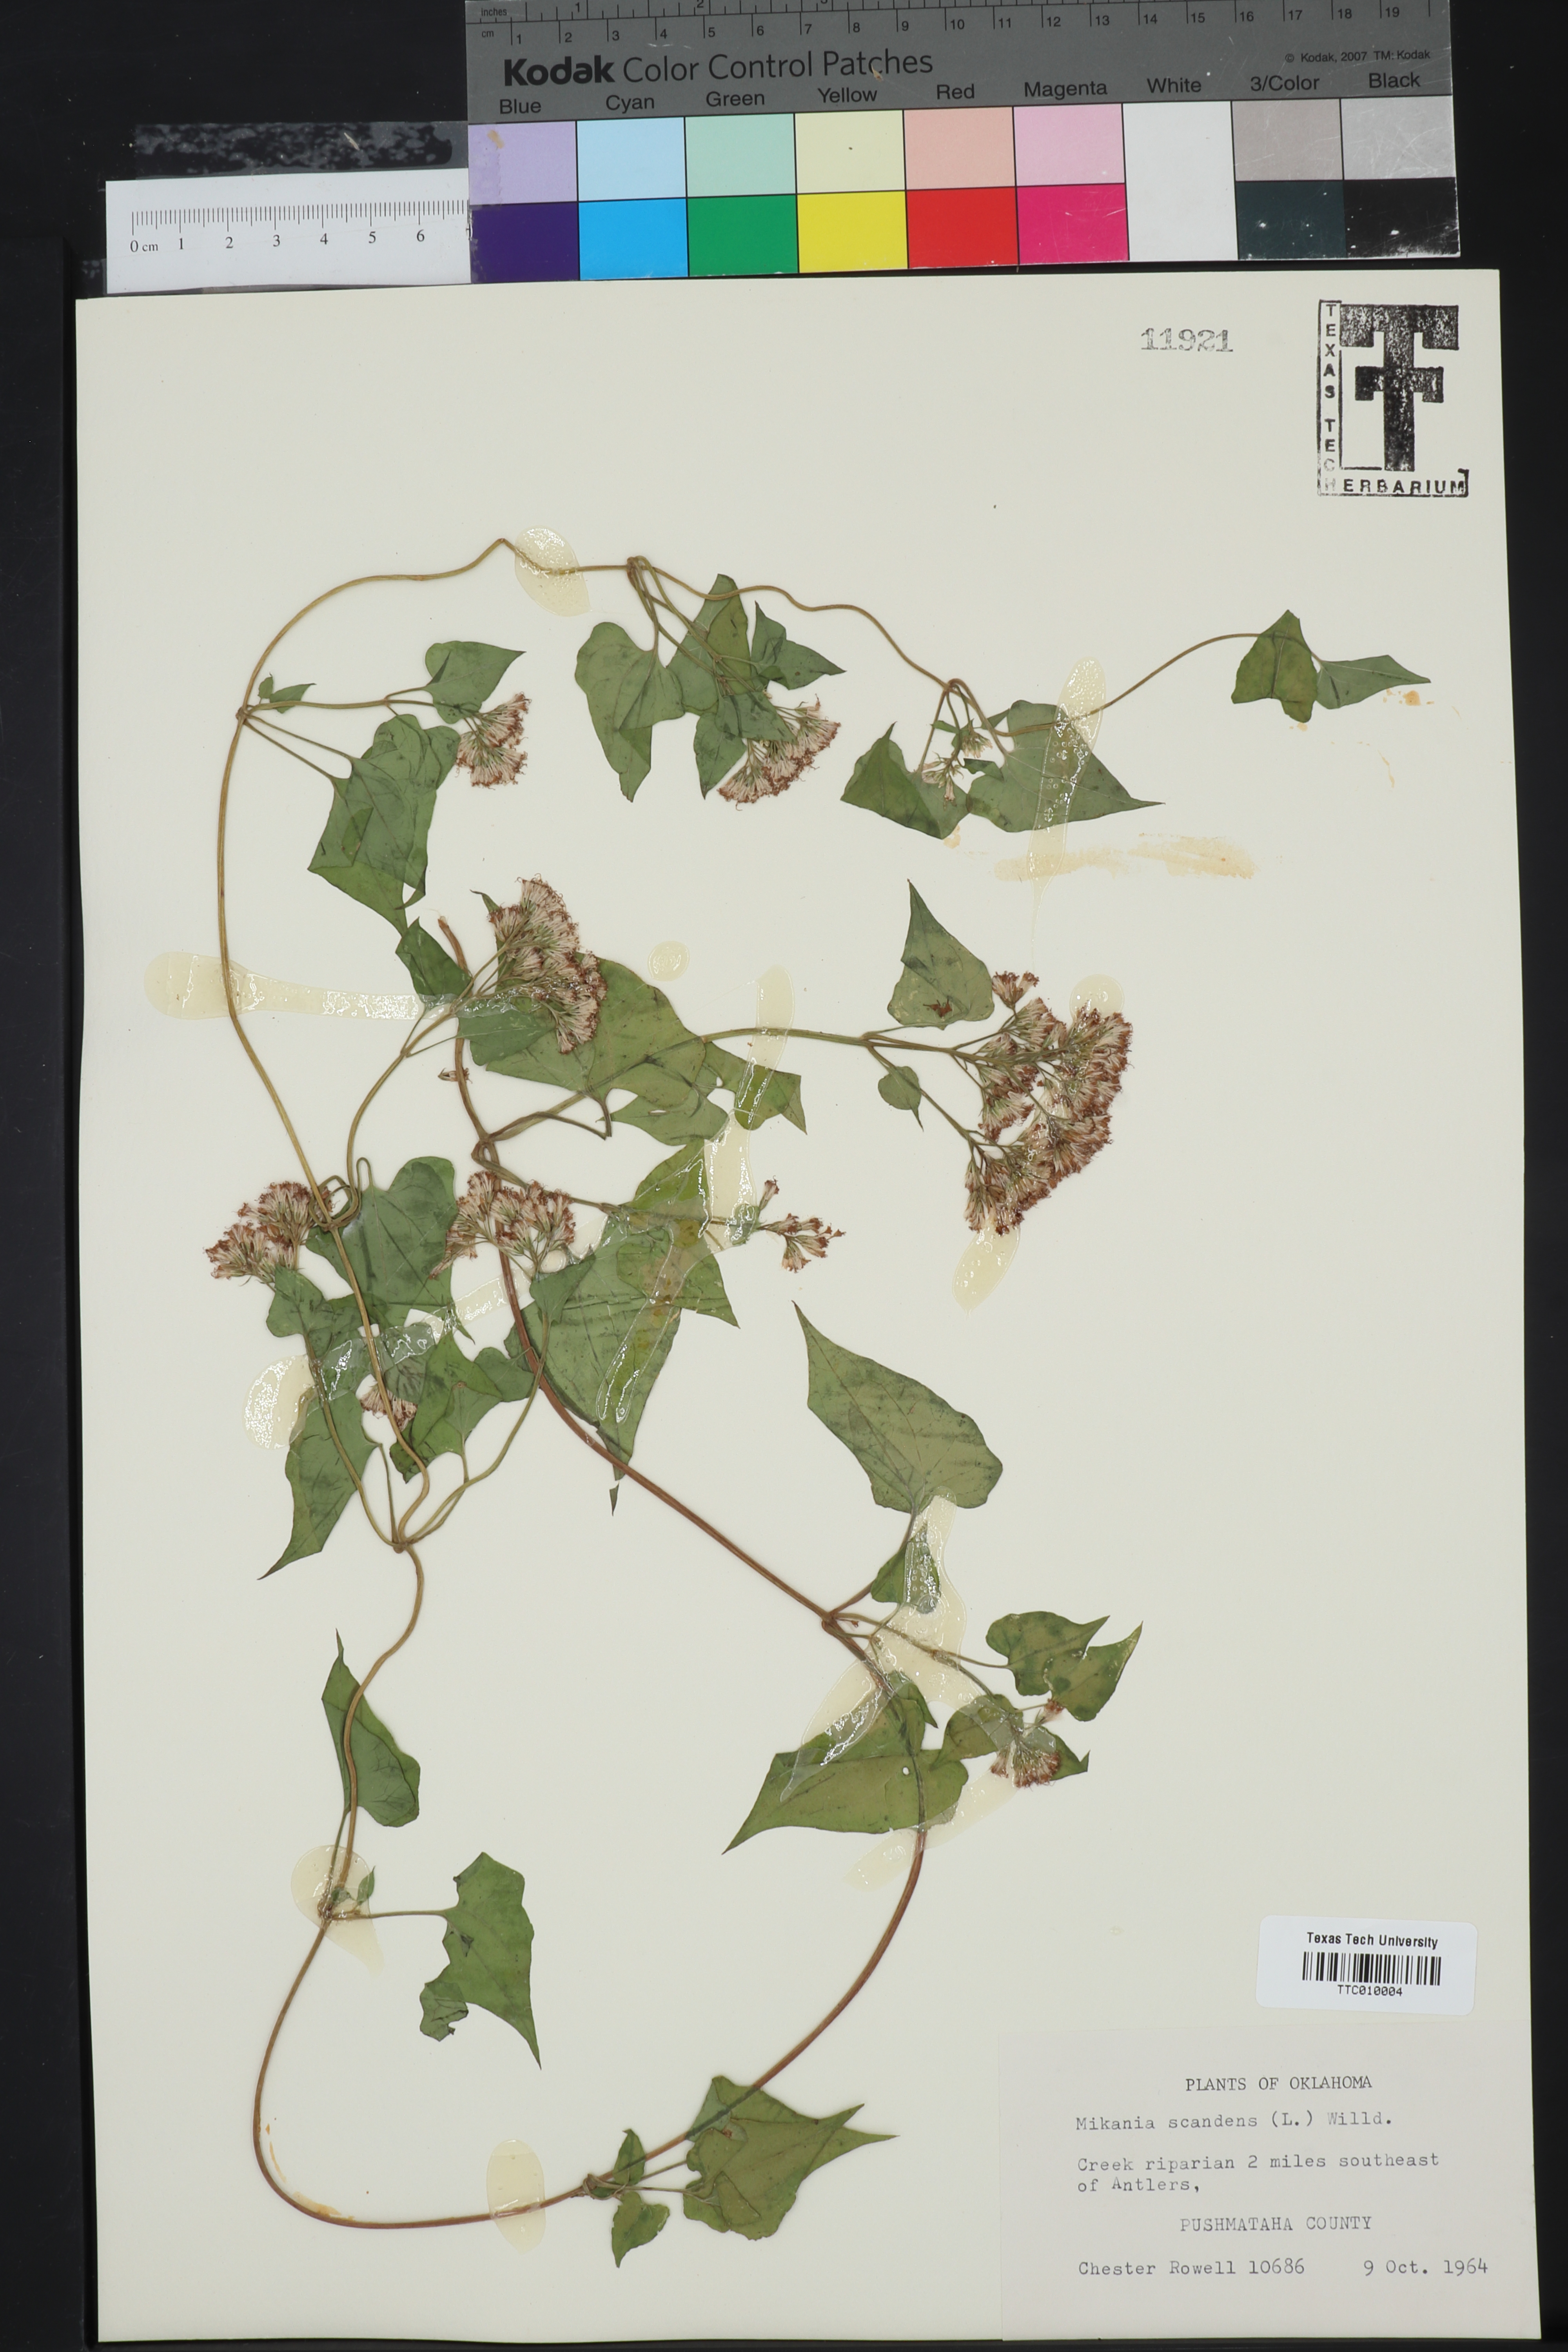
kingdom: Plantae
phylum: Tracheophyta
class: Magnoliopsida
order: Asterales
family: Asteraceae
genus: Mikania
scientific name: Mikania scandens
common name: Climbing hempvine
